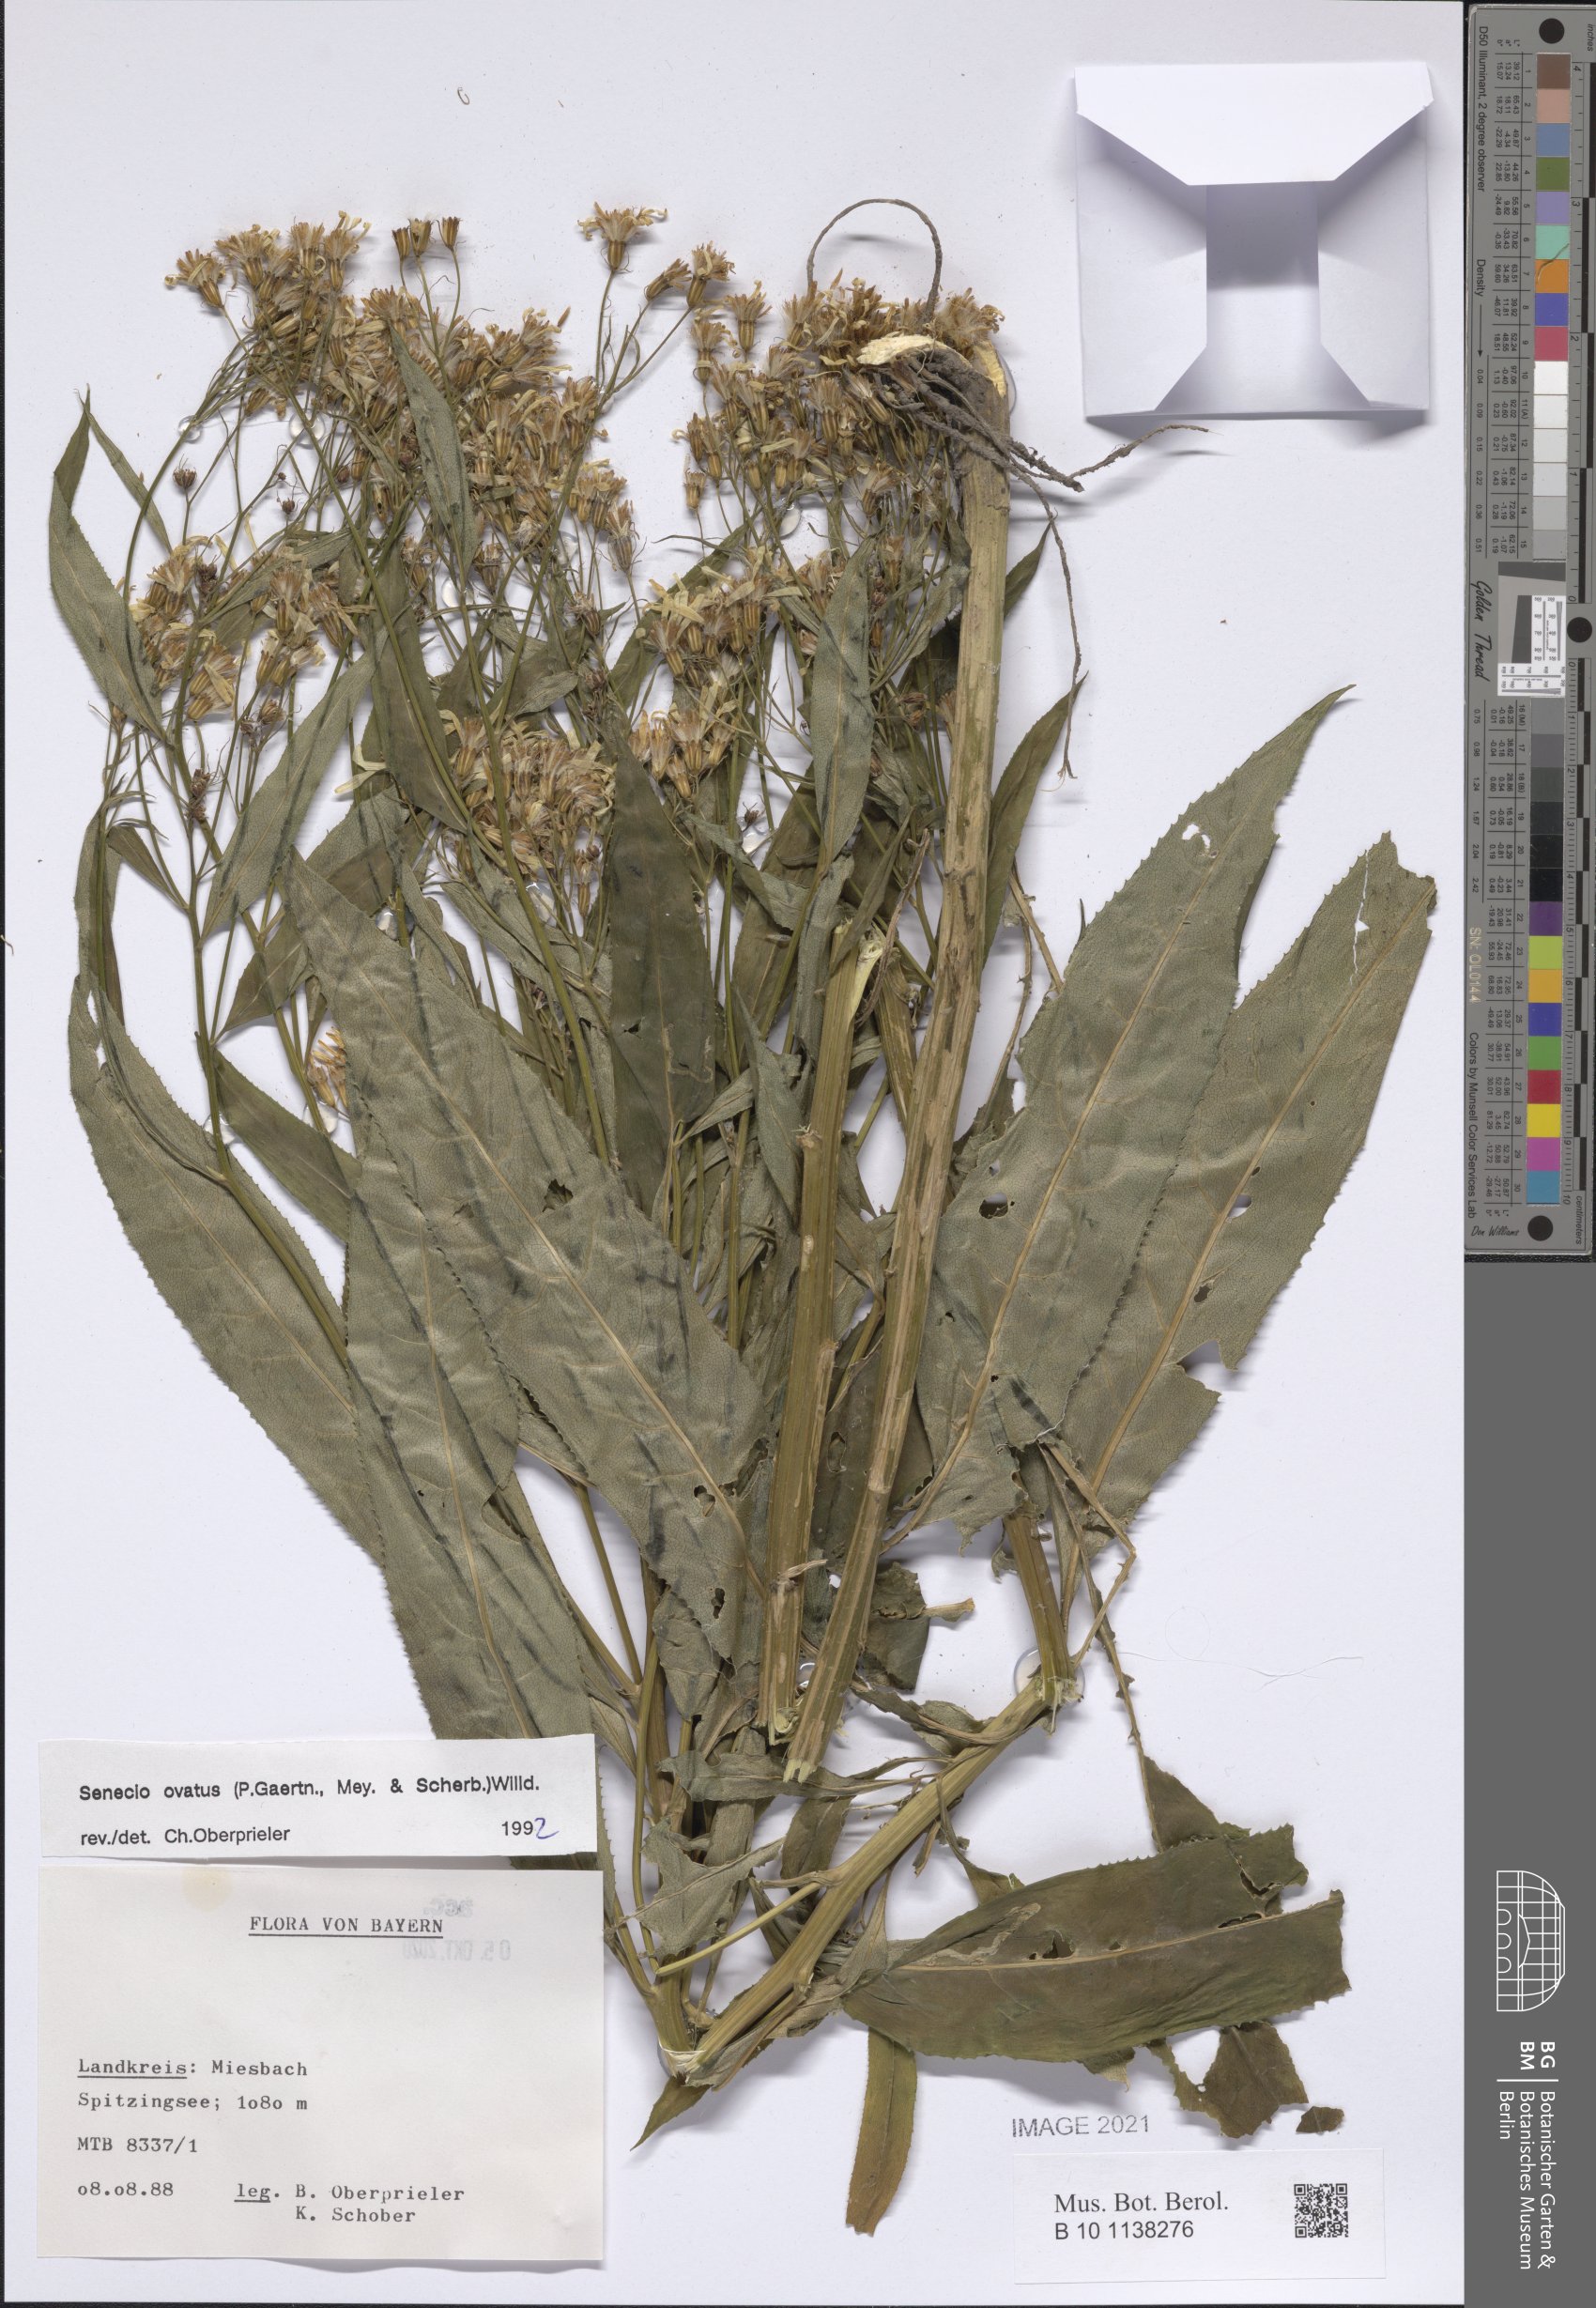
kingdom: Plantae
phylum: Tracheophyta
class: Magnoliopsida
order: Asterales
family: Asteraceae
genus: Senecio
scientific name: Senecio ovatus
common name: Wood ragwort
